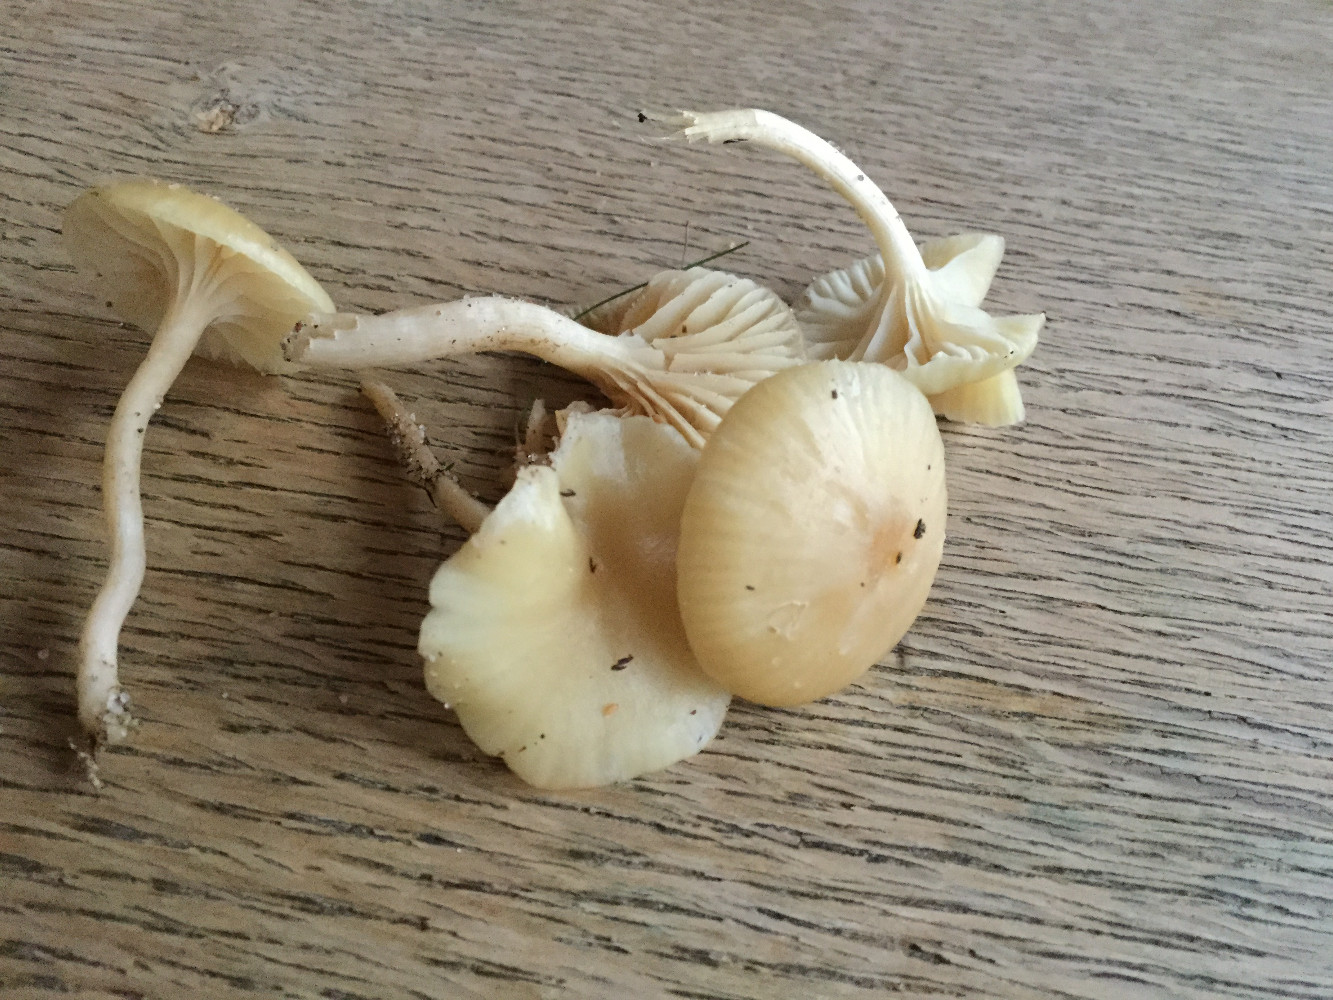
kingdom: Fungi
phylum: Basidiomycota
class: Agaricomycetes
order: Agaricales
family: Hygrophoraceae
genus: Cuphophyllus
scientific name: Cuphophyllus russocoriaceus
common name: ruslæder-vokshat
